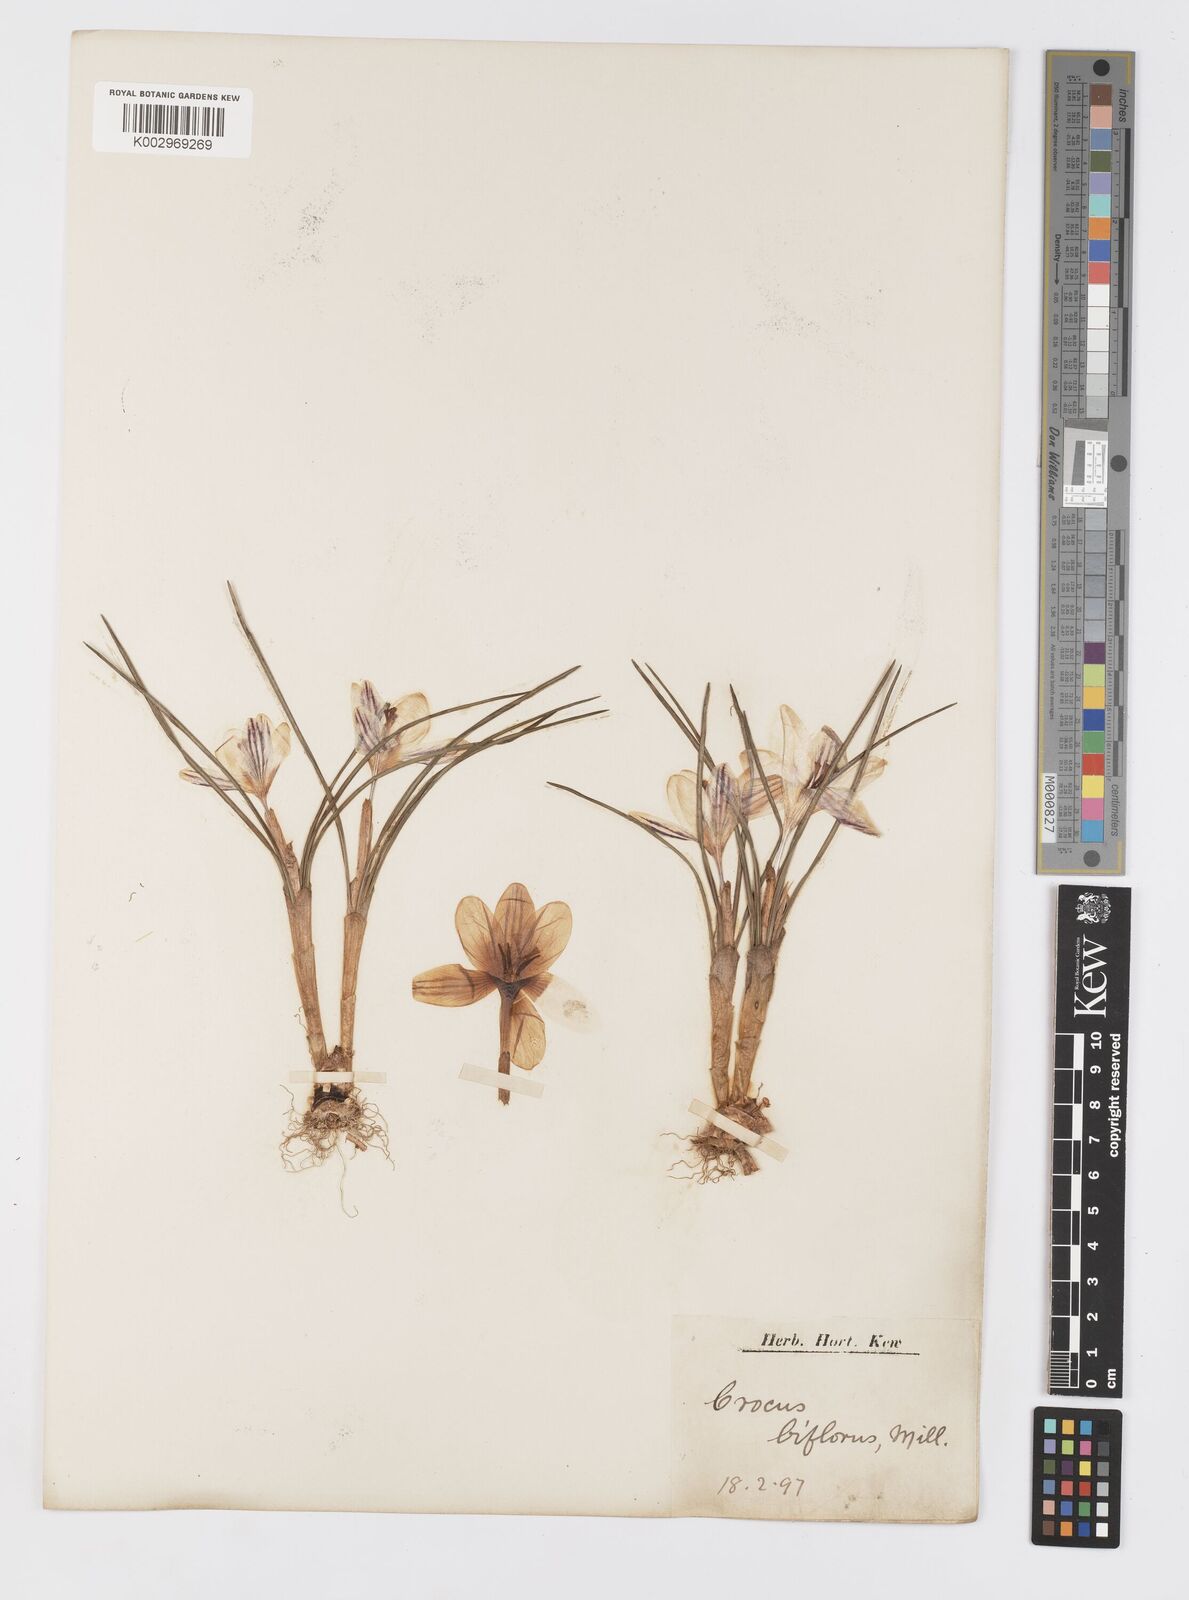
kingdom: Plantae
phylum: Tracheophyta
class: Liliopsida
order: Asparagales
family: Iridaceae
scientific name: Iridaceae
